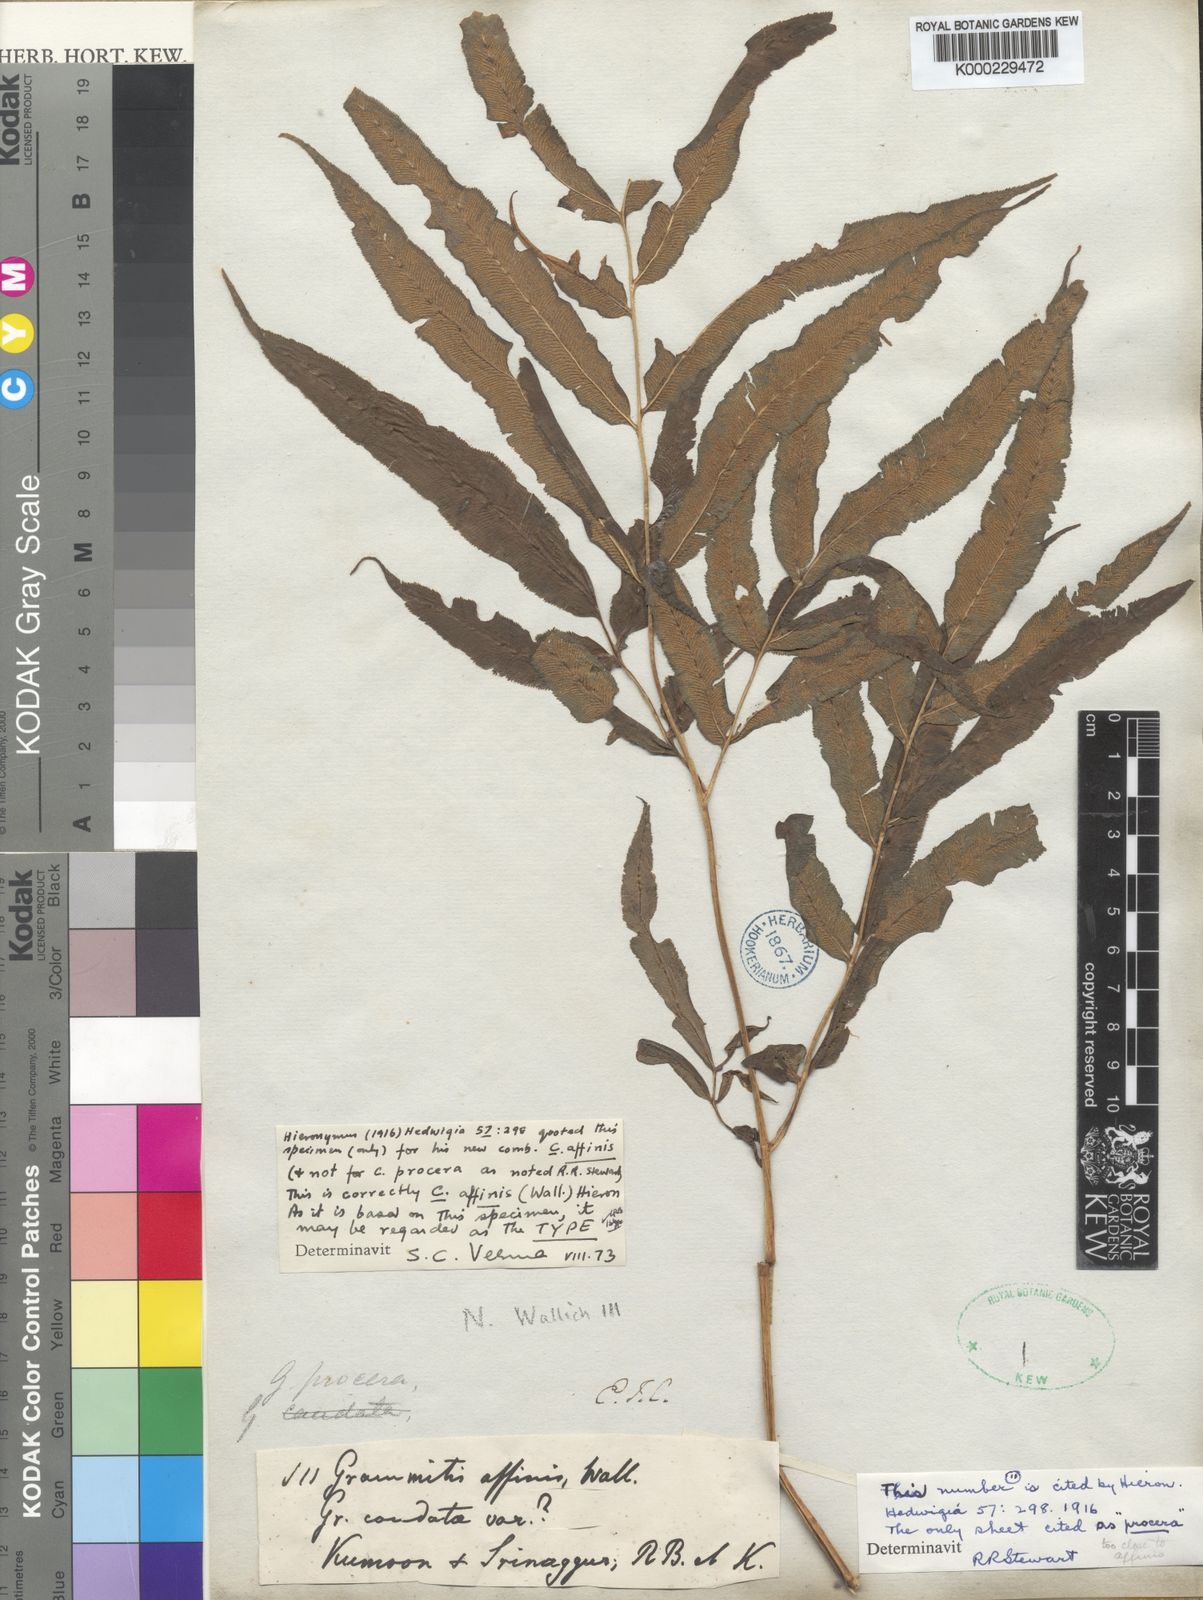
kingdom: Plantae
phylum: Tracheophyta
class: Polypodiopsida
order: Polypodiales
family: Pteridaceae
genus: Coniogramme
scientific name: Coniogramme affinis
